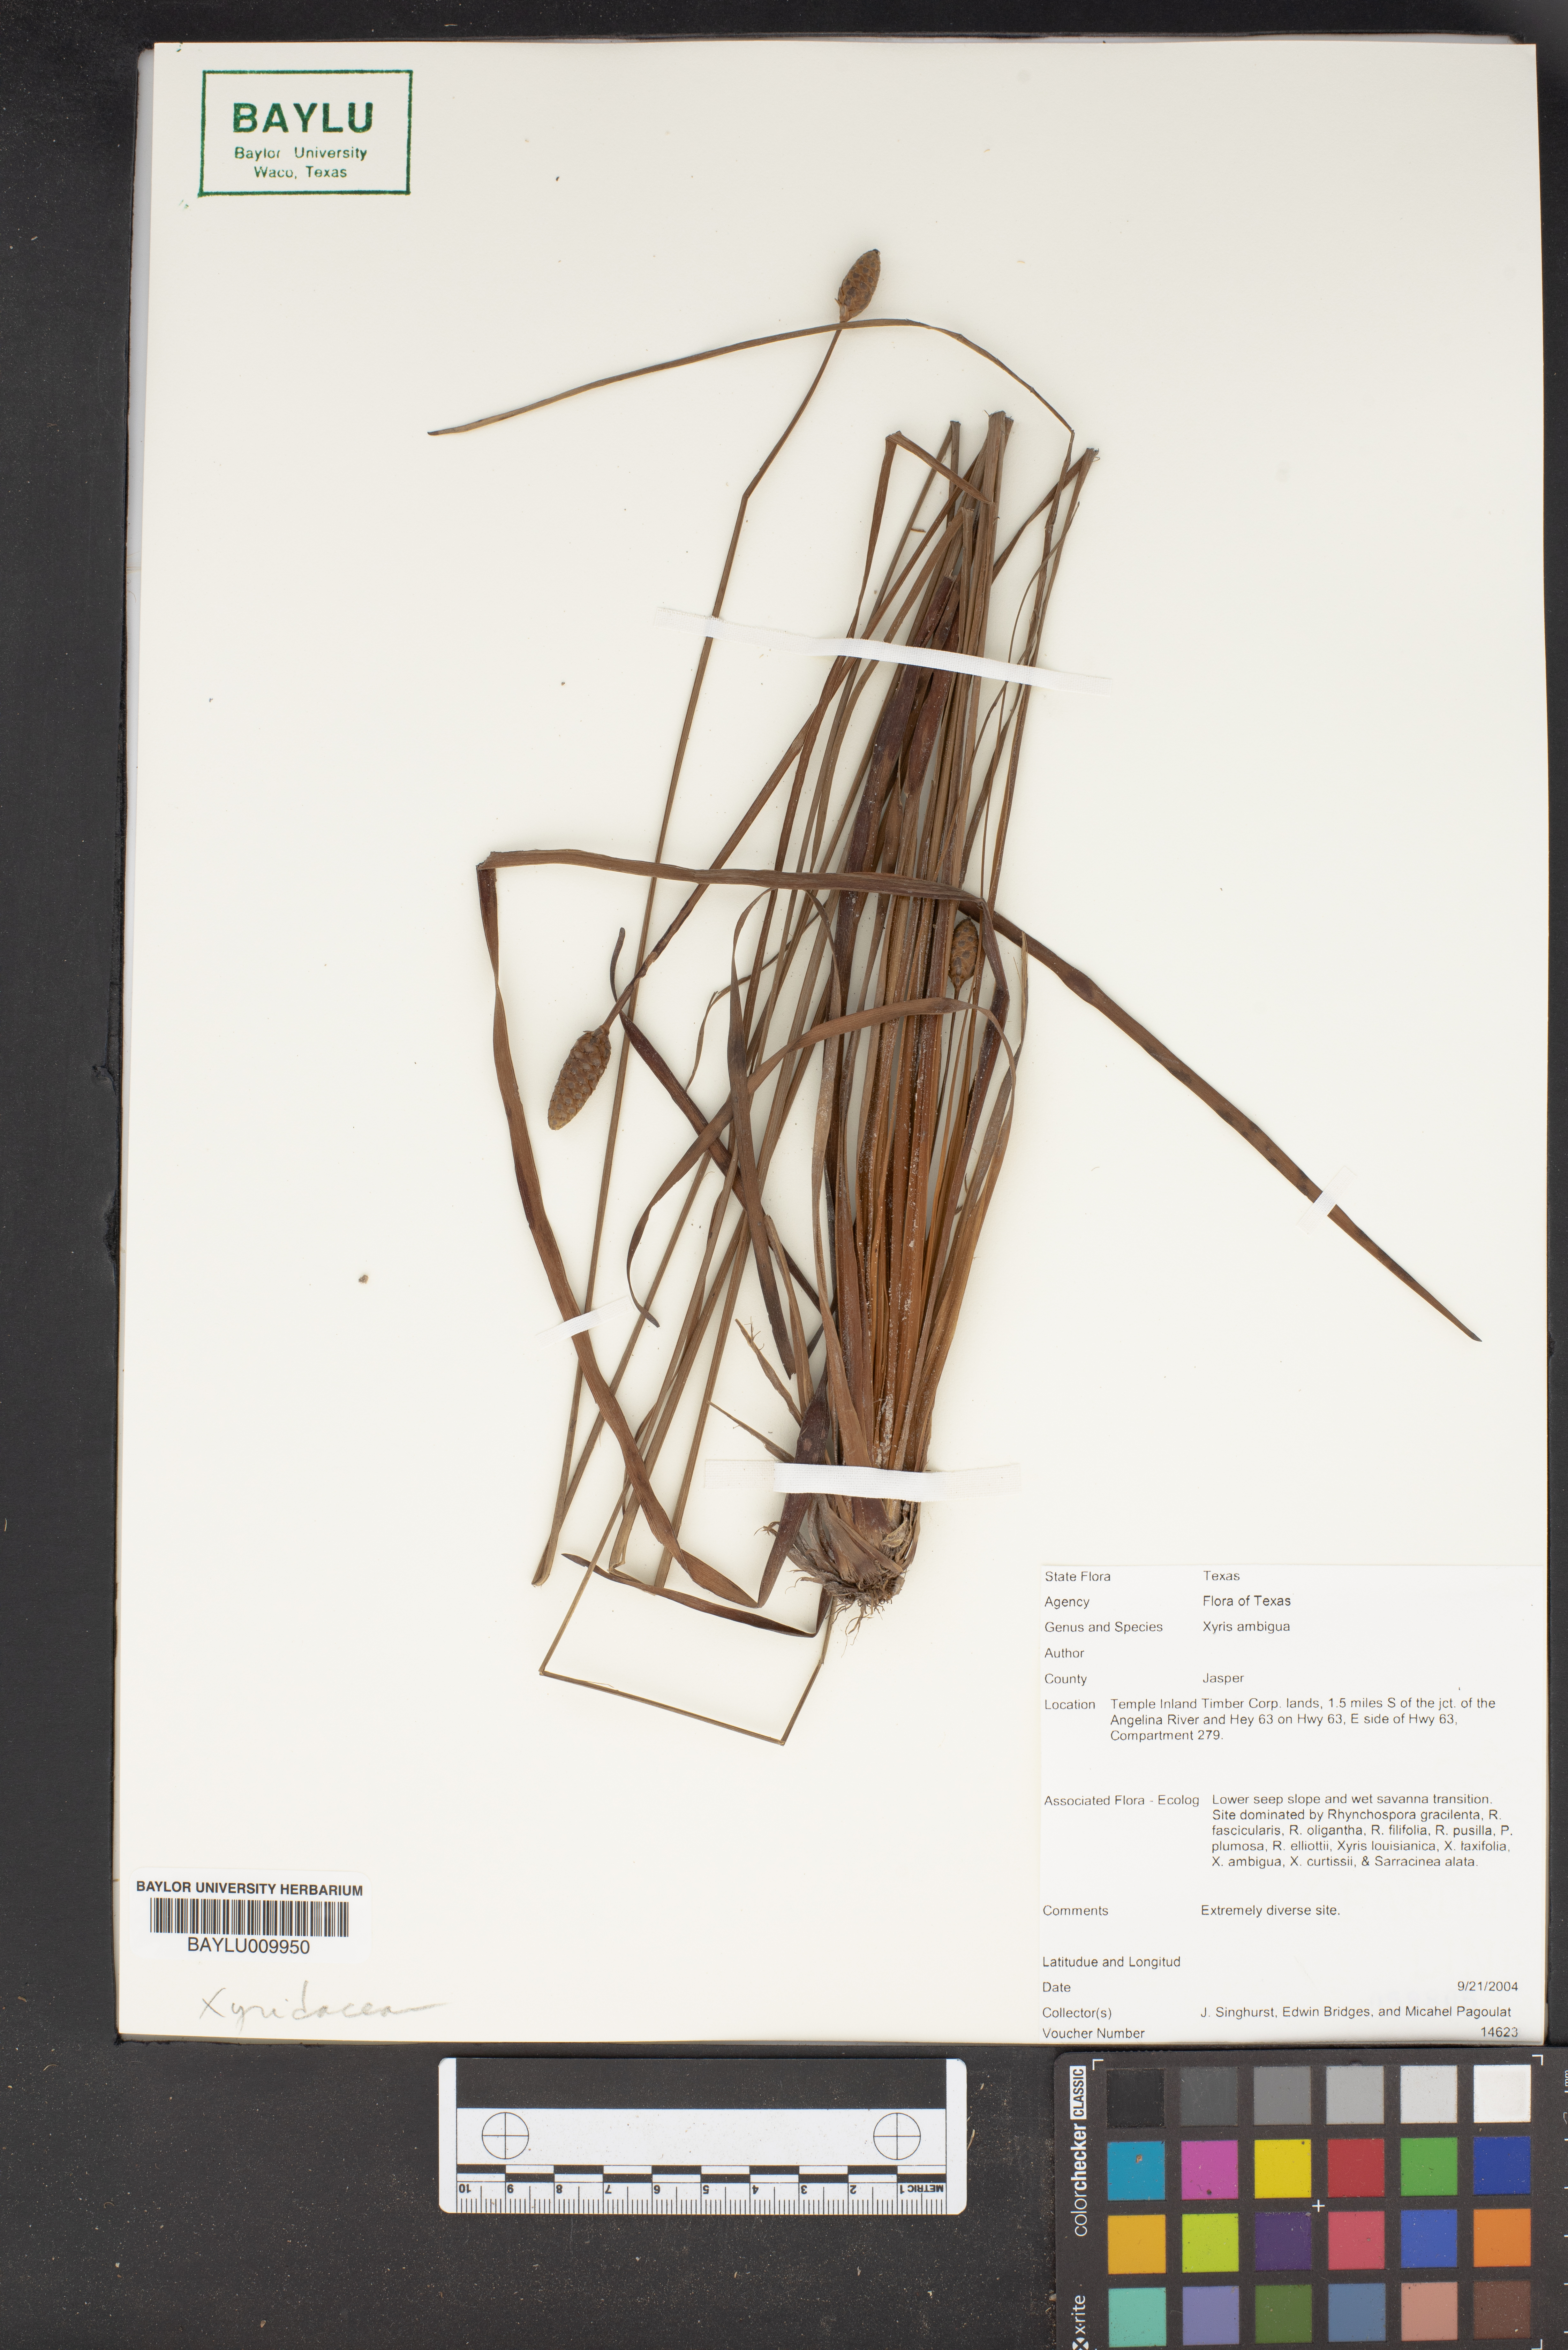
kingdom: Plantae
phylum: Tracheophyta
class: Liliopsida
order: Poales
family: Xyridaceae
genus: Xyris
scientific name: Xyris ambigua
